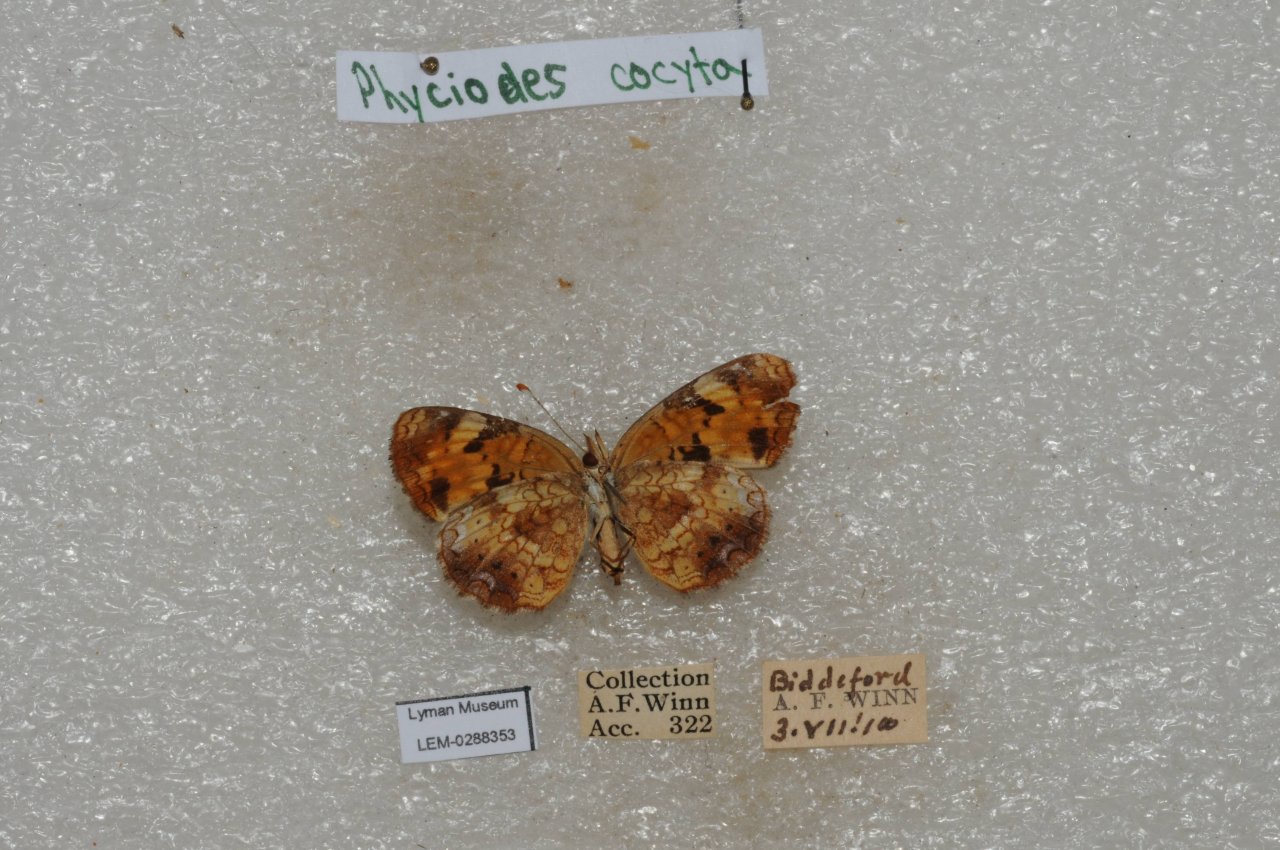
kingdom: Animalia
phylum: Arthropoda
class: Insecta
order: Lepidoptera
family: Nymphalidae
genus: Phyciodes
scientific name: Phyciodes tharos
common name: Northern Crescent
